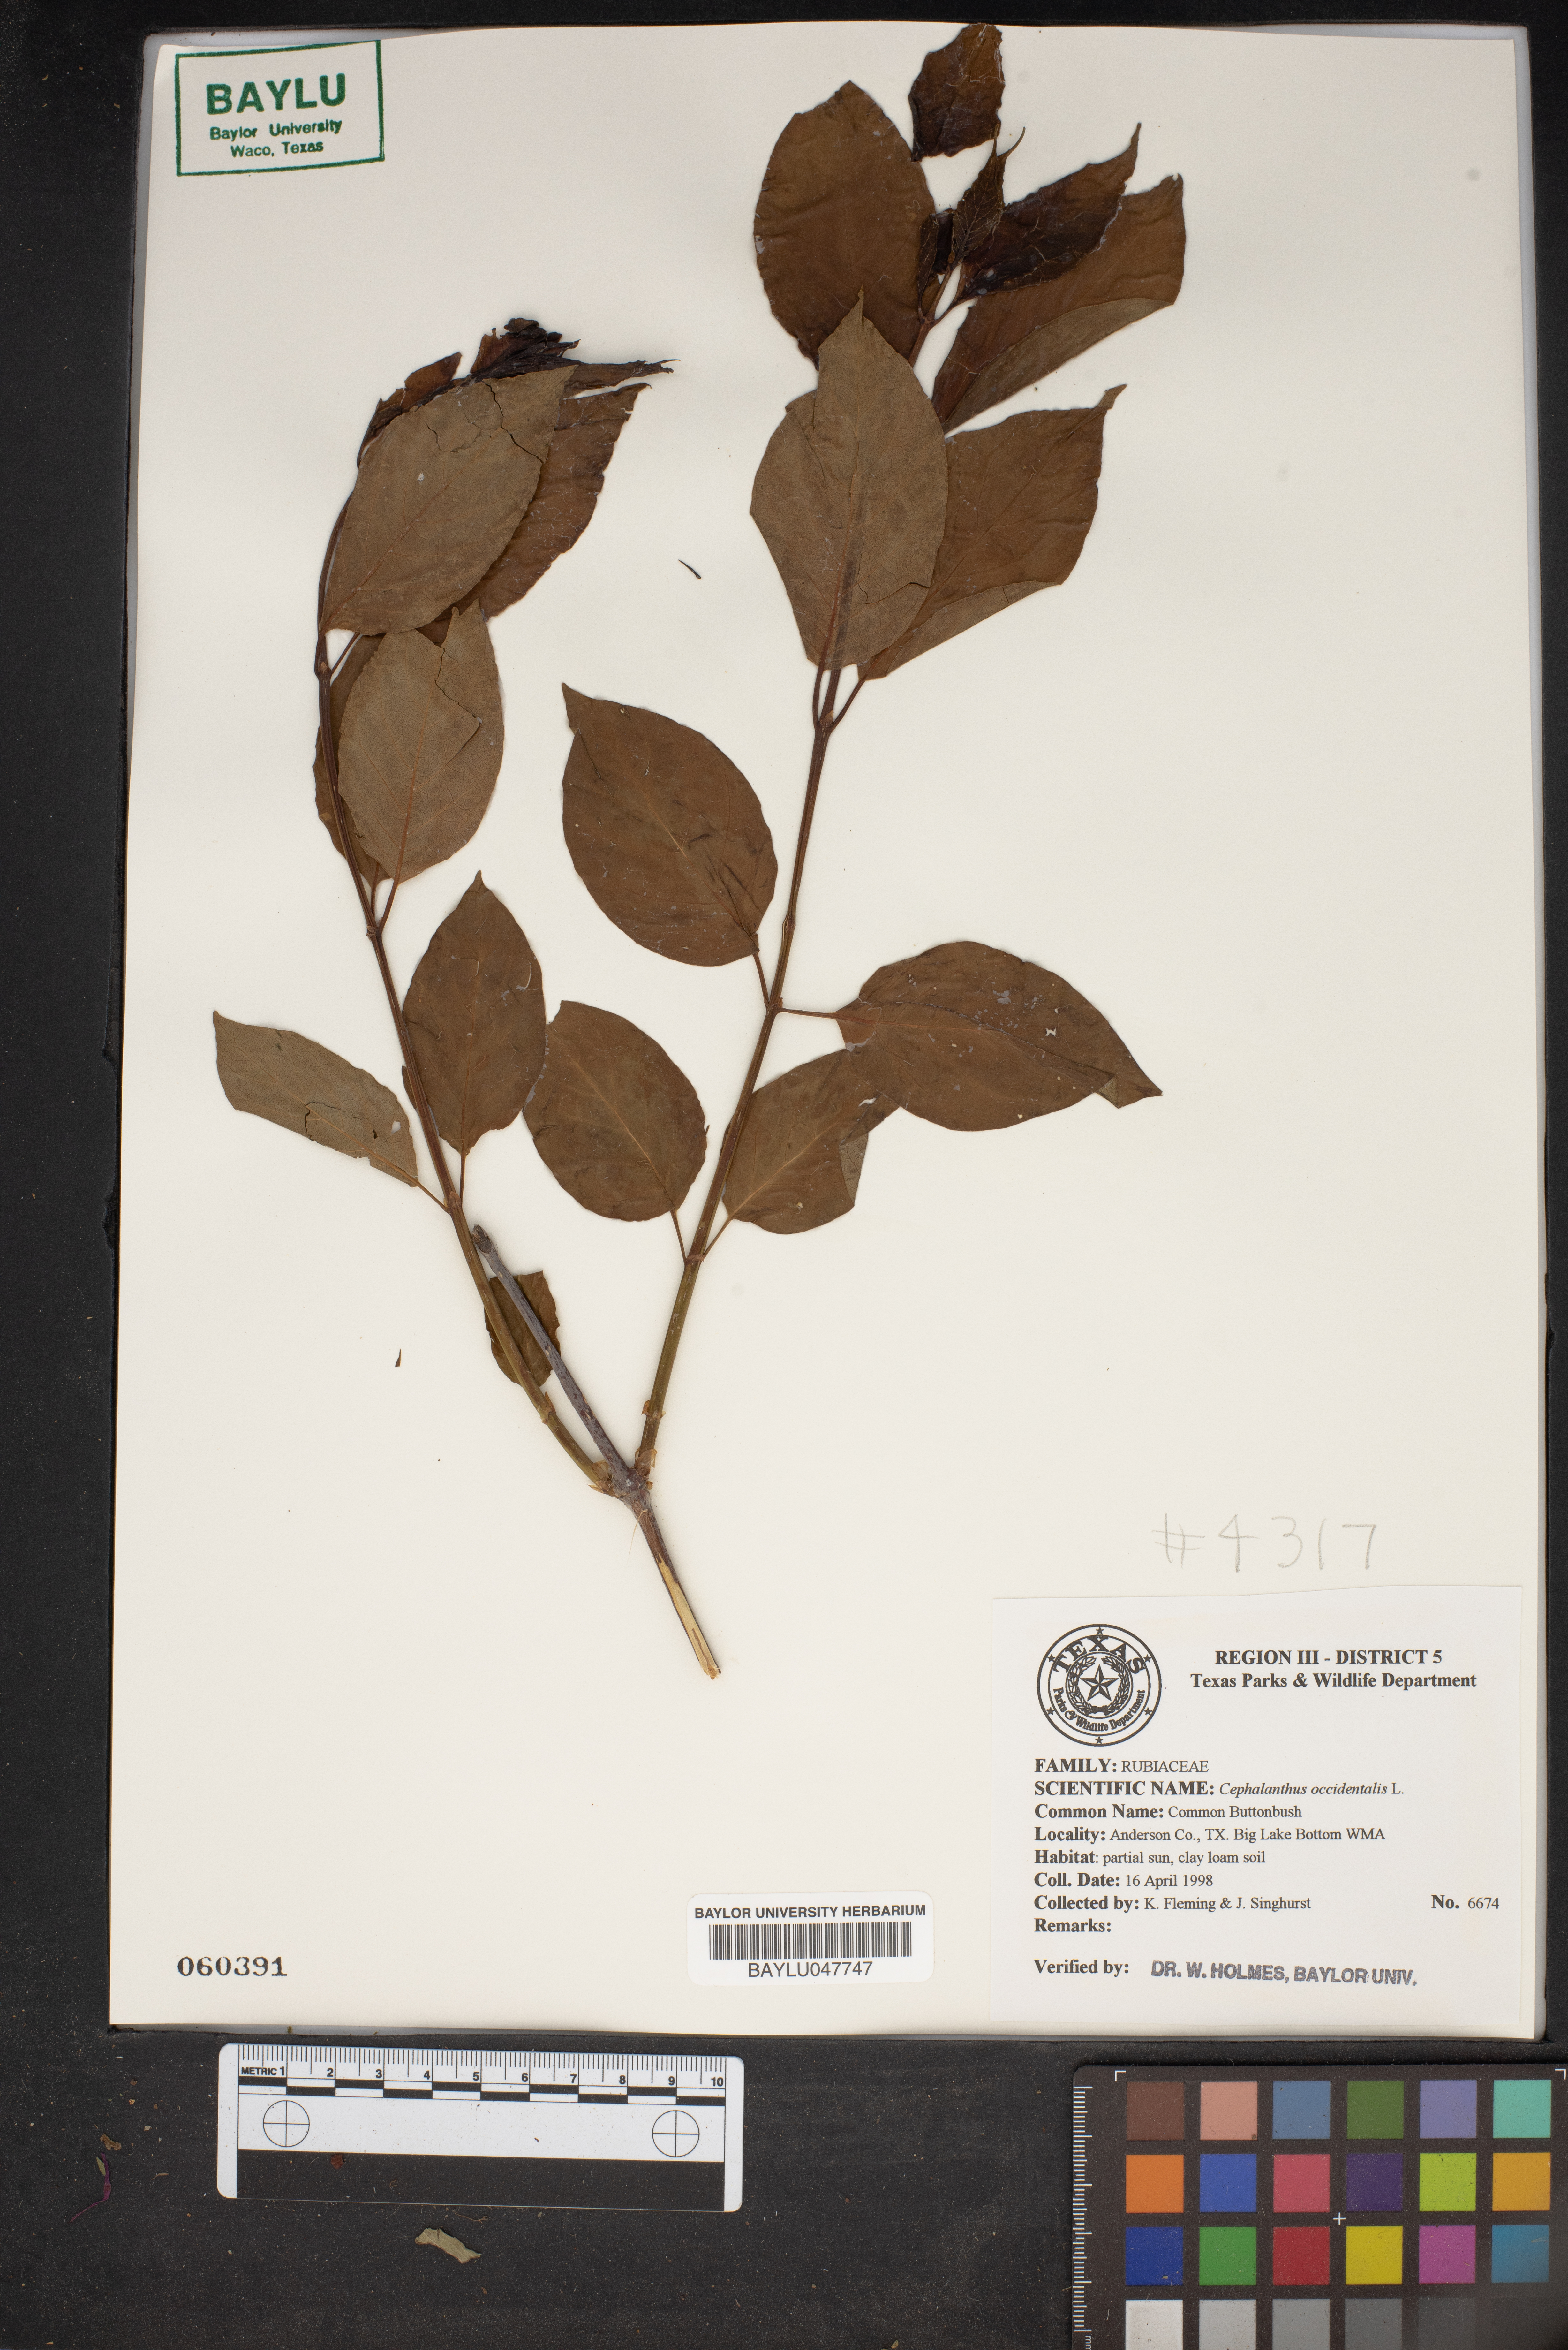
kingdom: Plantae
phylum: Tracheophyta
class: Magnoliopsida
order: Gentianales
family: Rubiaceae
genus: Cephalanthus
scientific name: Cephalanthus occidentalis
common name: Button-willow
